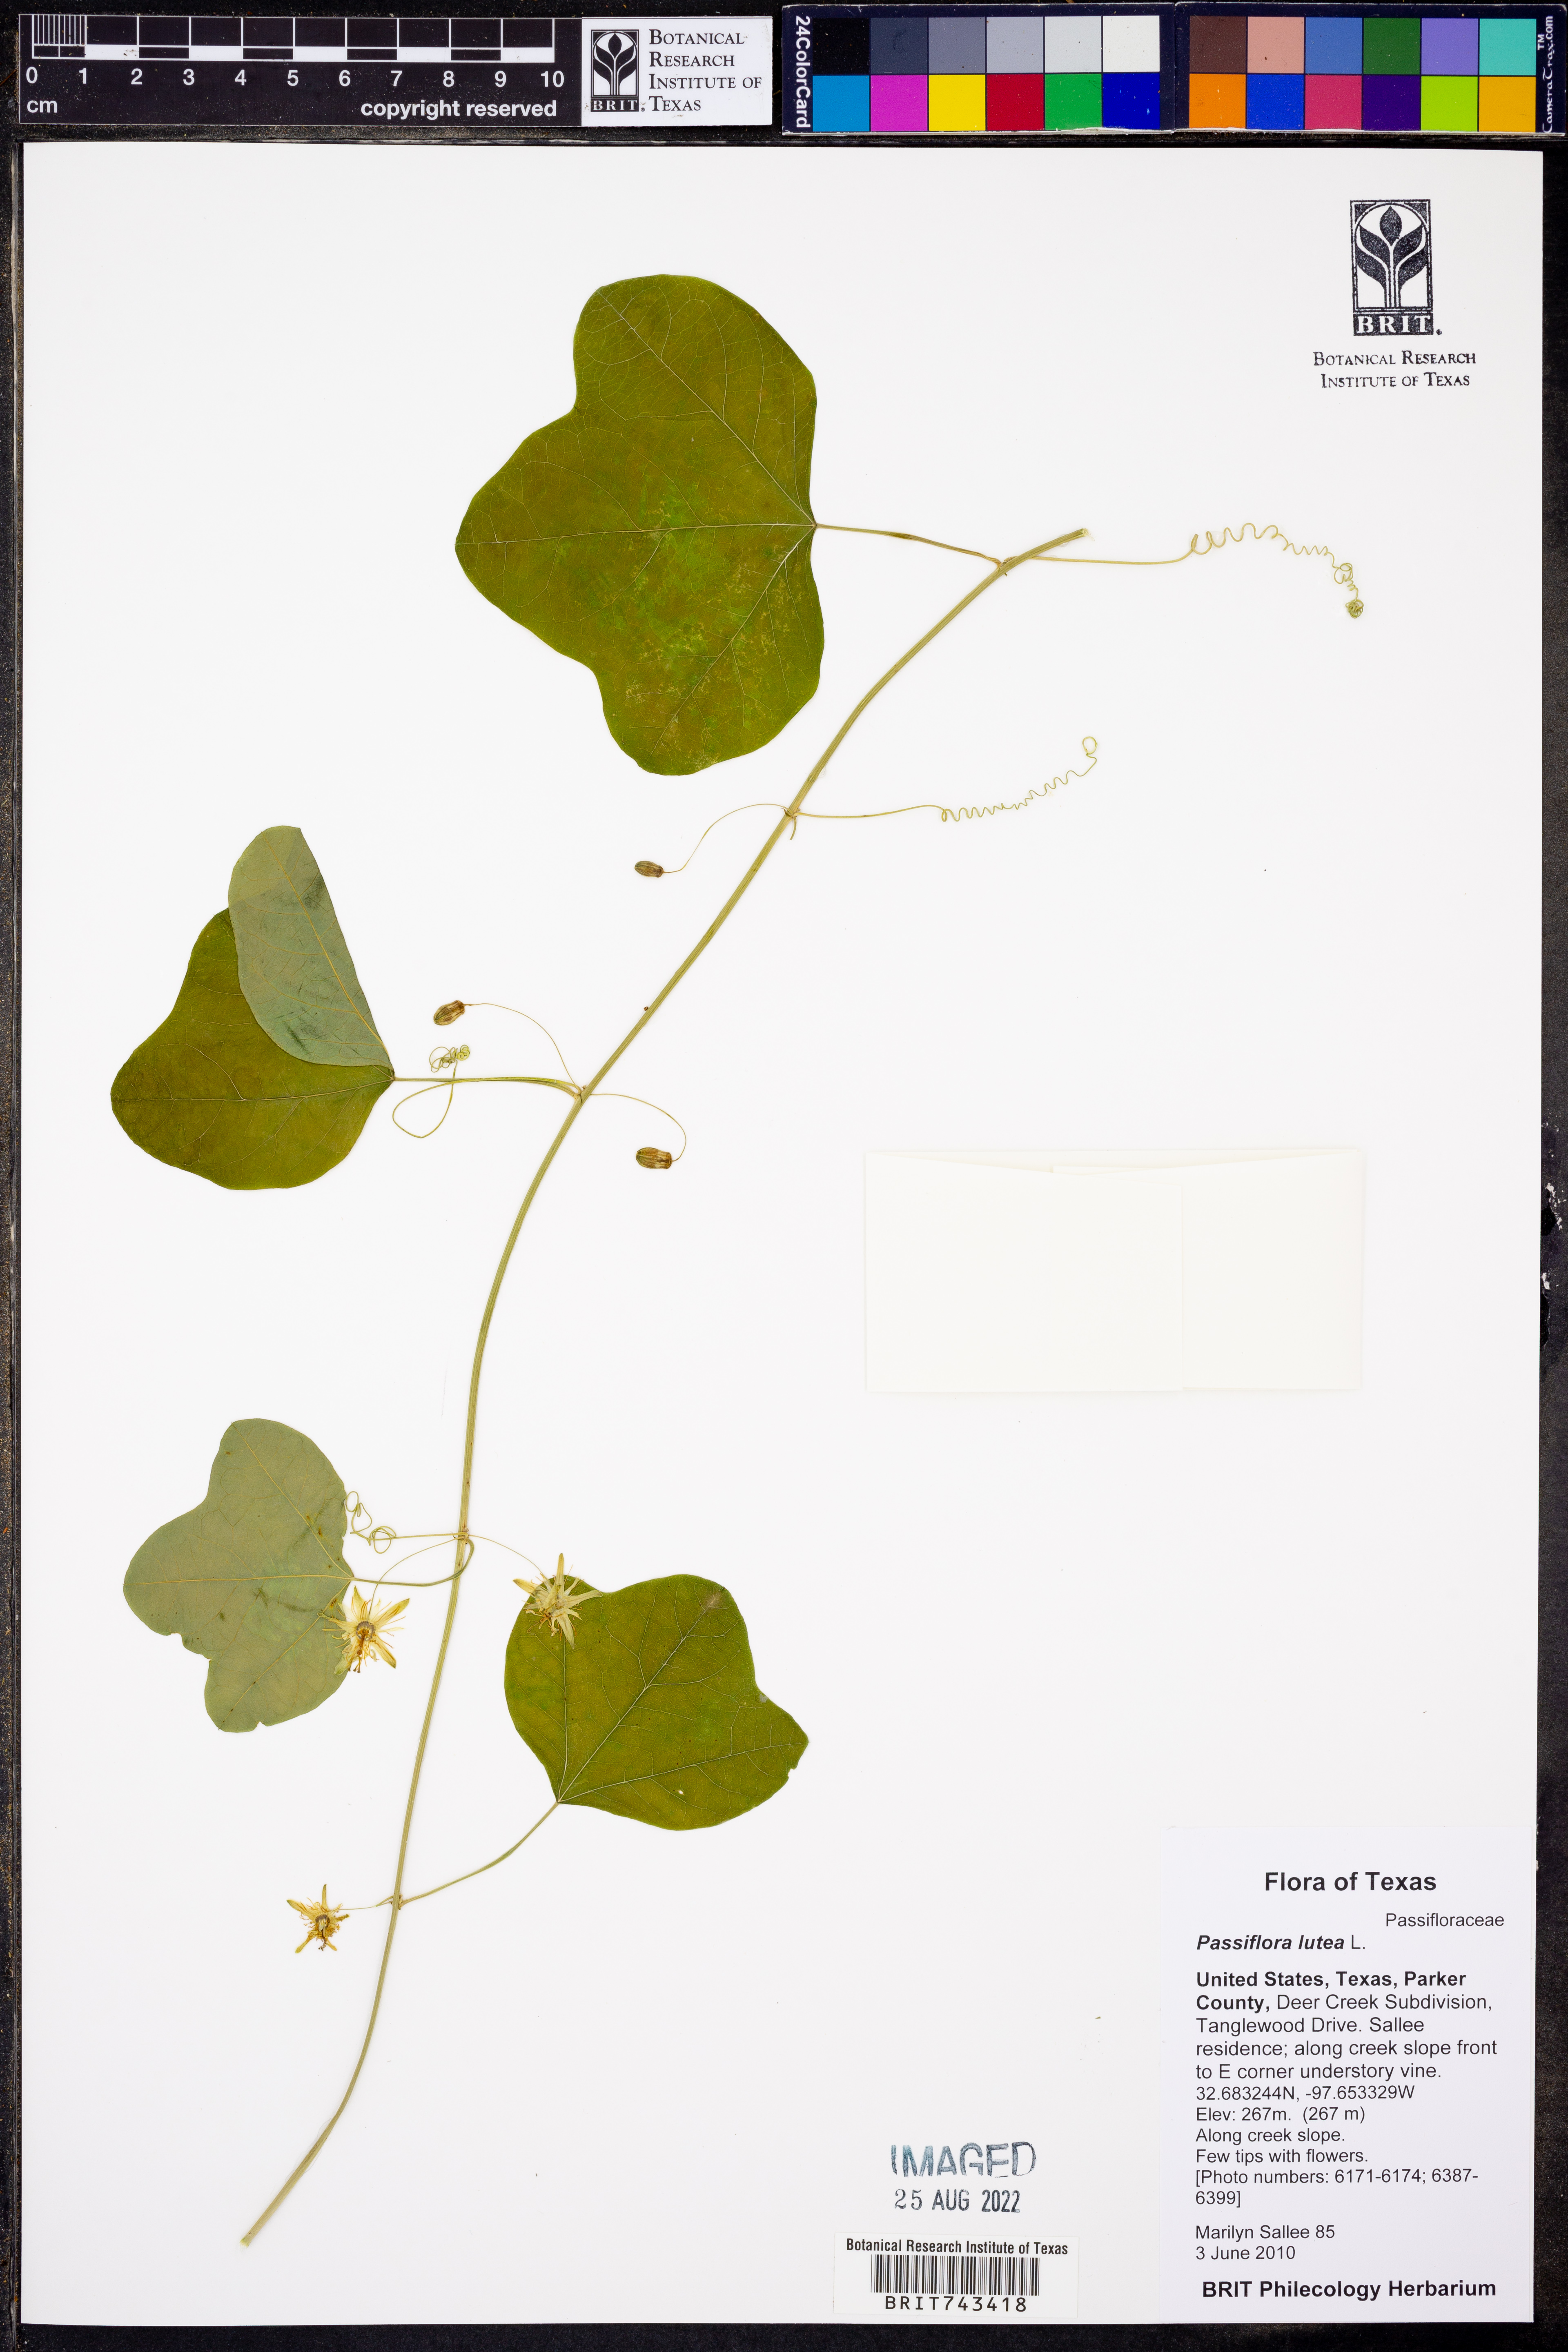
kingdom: Plantae
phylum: Tracheophyta
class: Magnoliopsida
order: Malpighiales
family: Passifloraceae
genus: Passiflora
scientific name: Passiflora lutea
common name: Yellow passionflower
